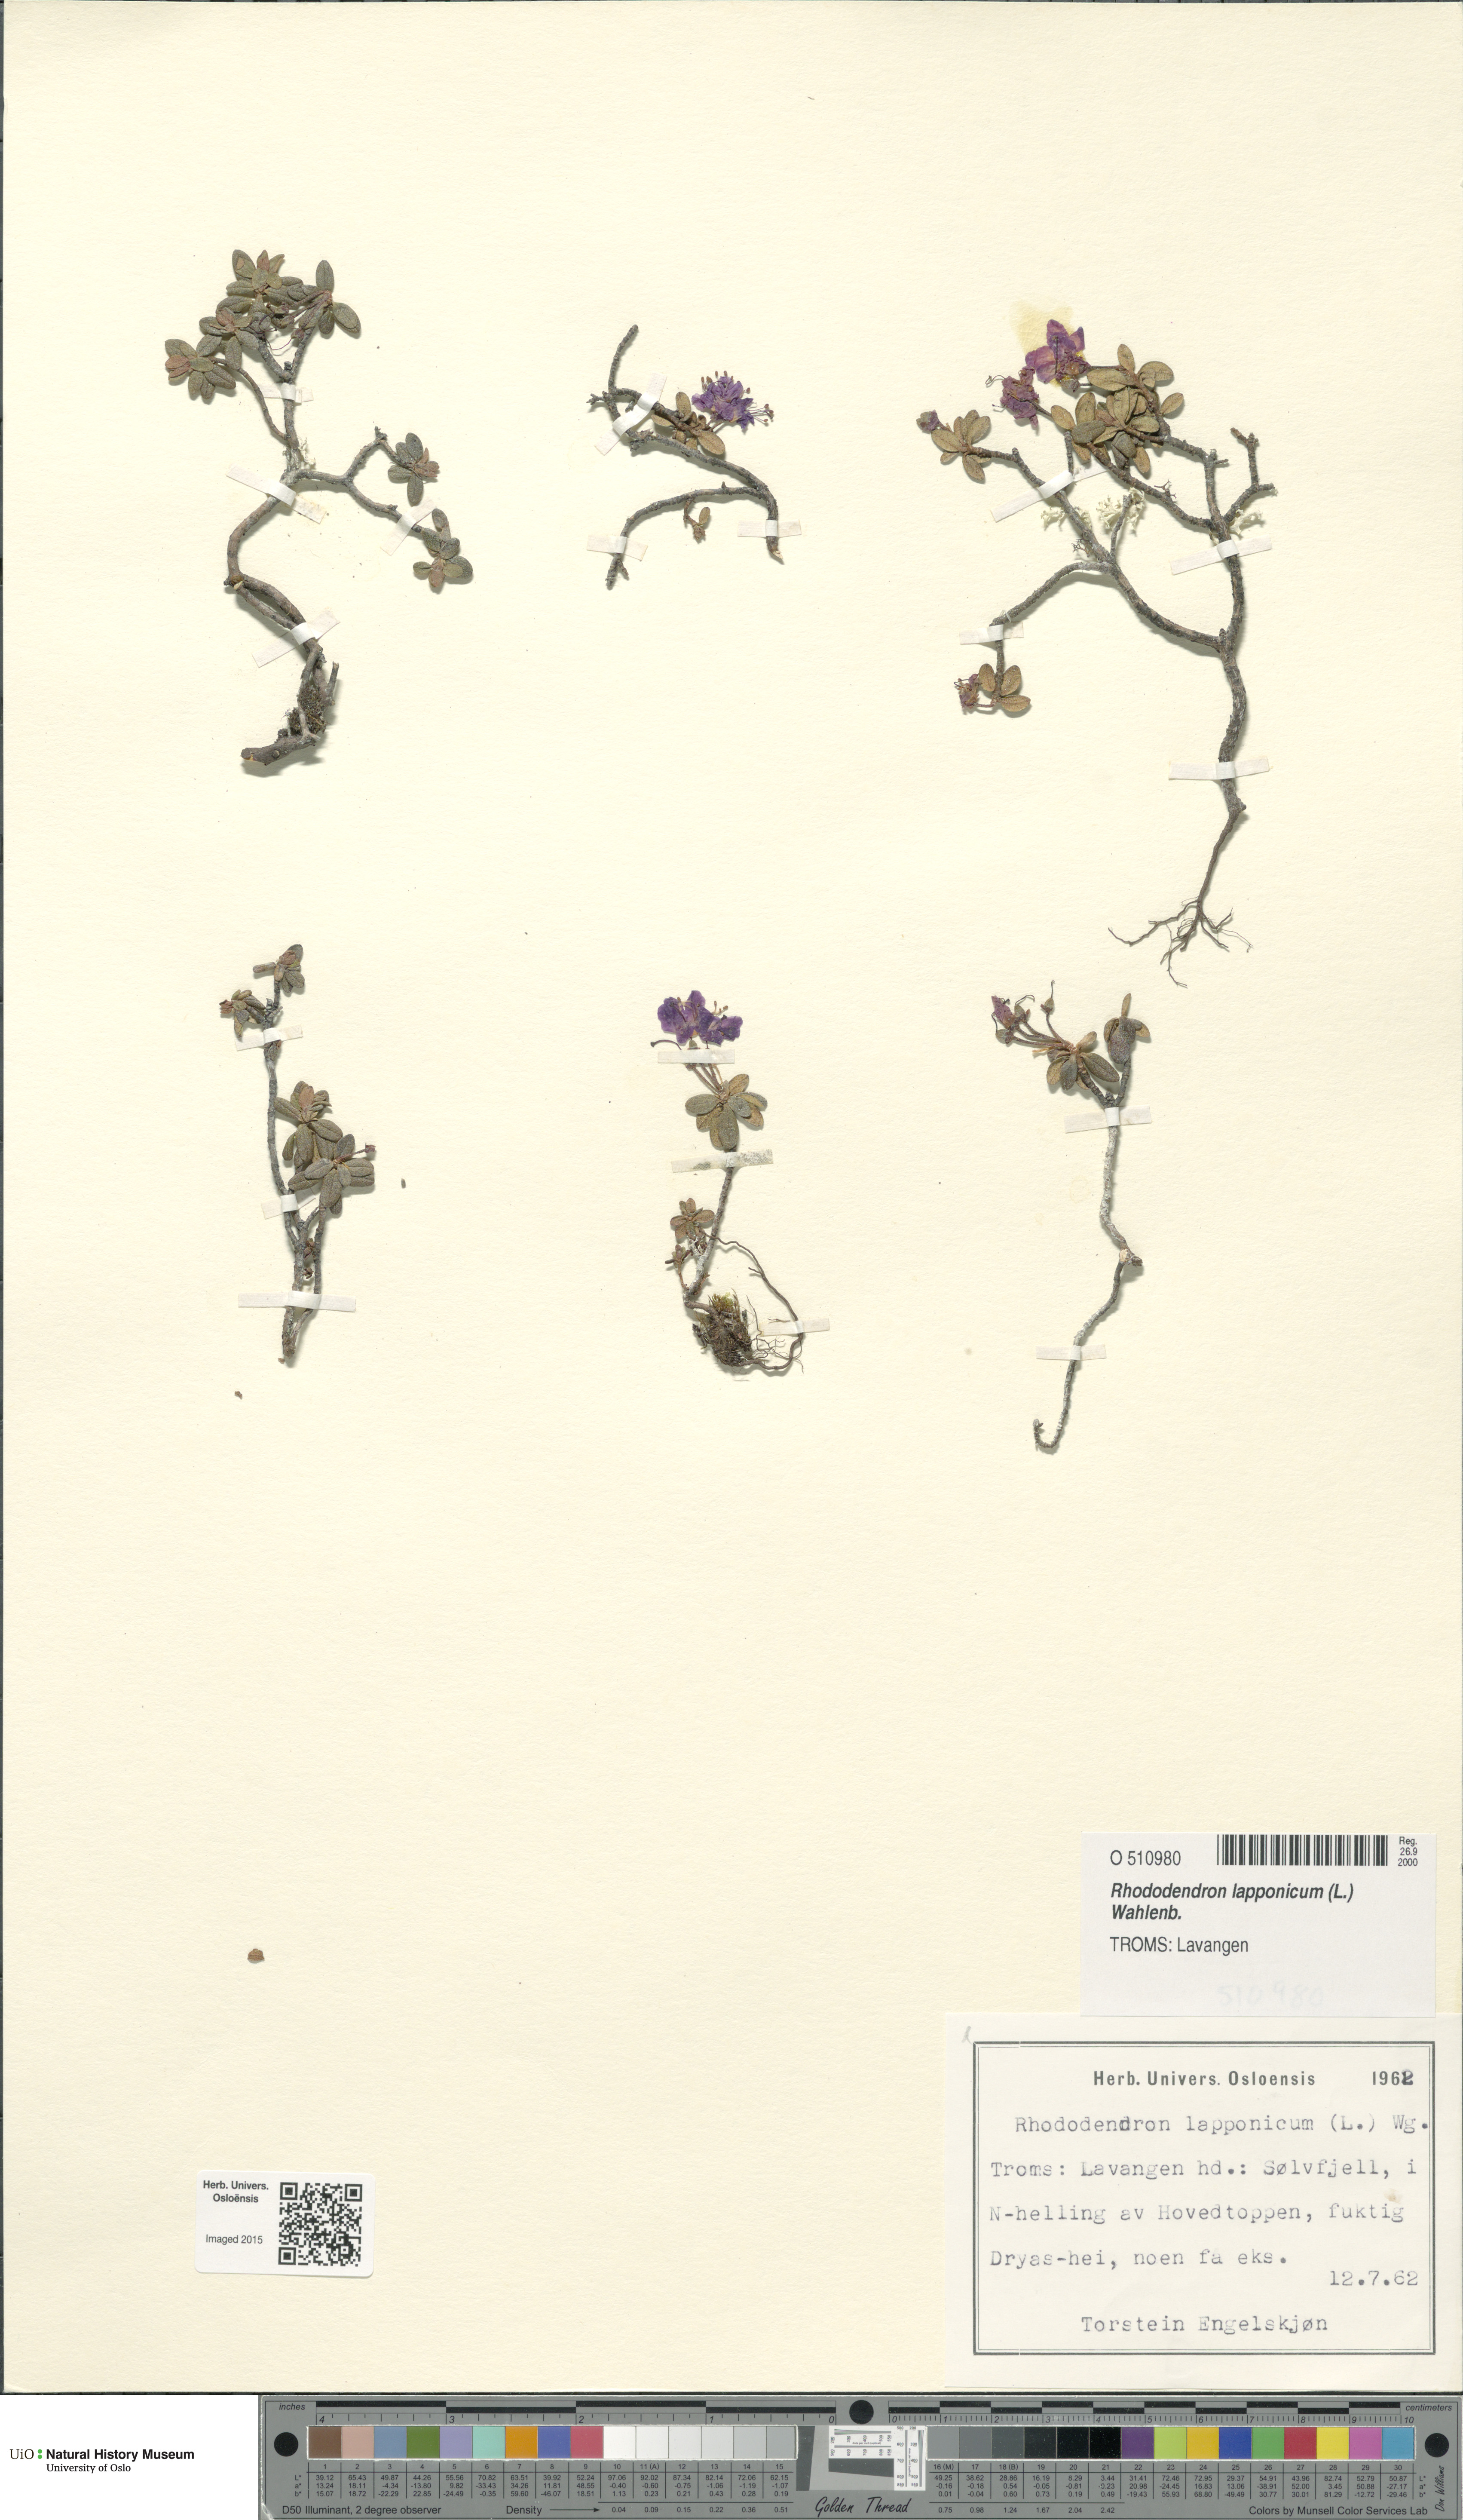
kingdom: Plantae
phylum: Tracheophyta
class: Magnoliopsida
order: Ericales
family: Ericaceae
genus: Rhododendron
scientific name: Rhododendron lapponicum
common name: Lapland rhododendron
